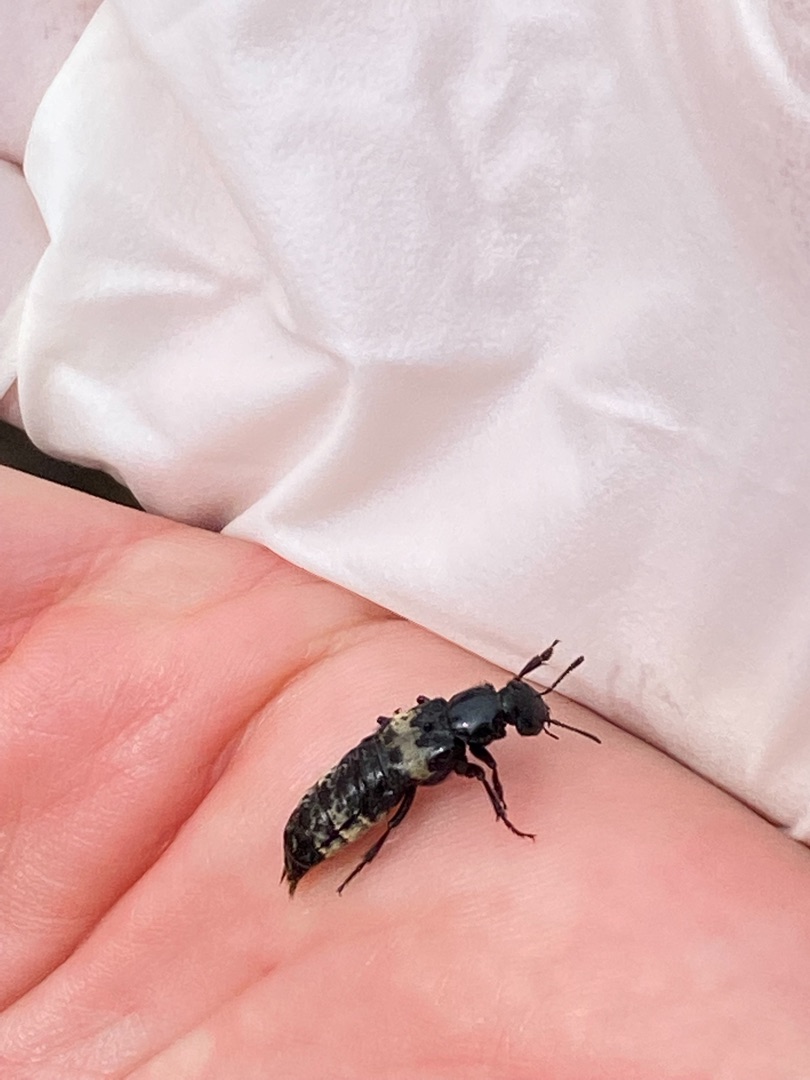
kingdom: Animalia
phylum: Arthropoda
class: Insecta
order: Coleoptera
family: Staphylinidae
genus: Creophilus
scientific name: Creophilus maxillosus
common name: Skrækrovbille
